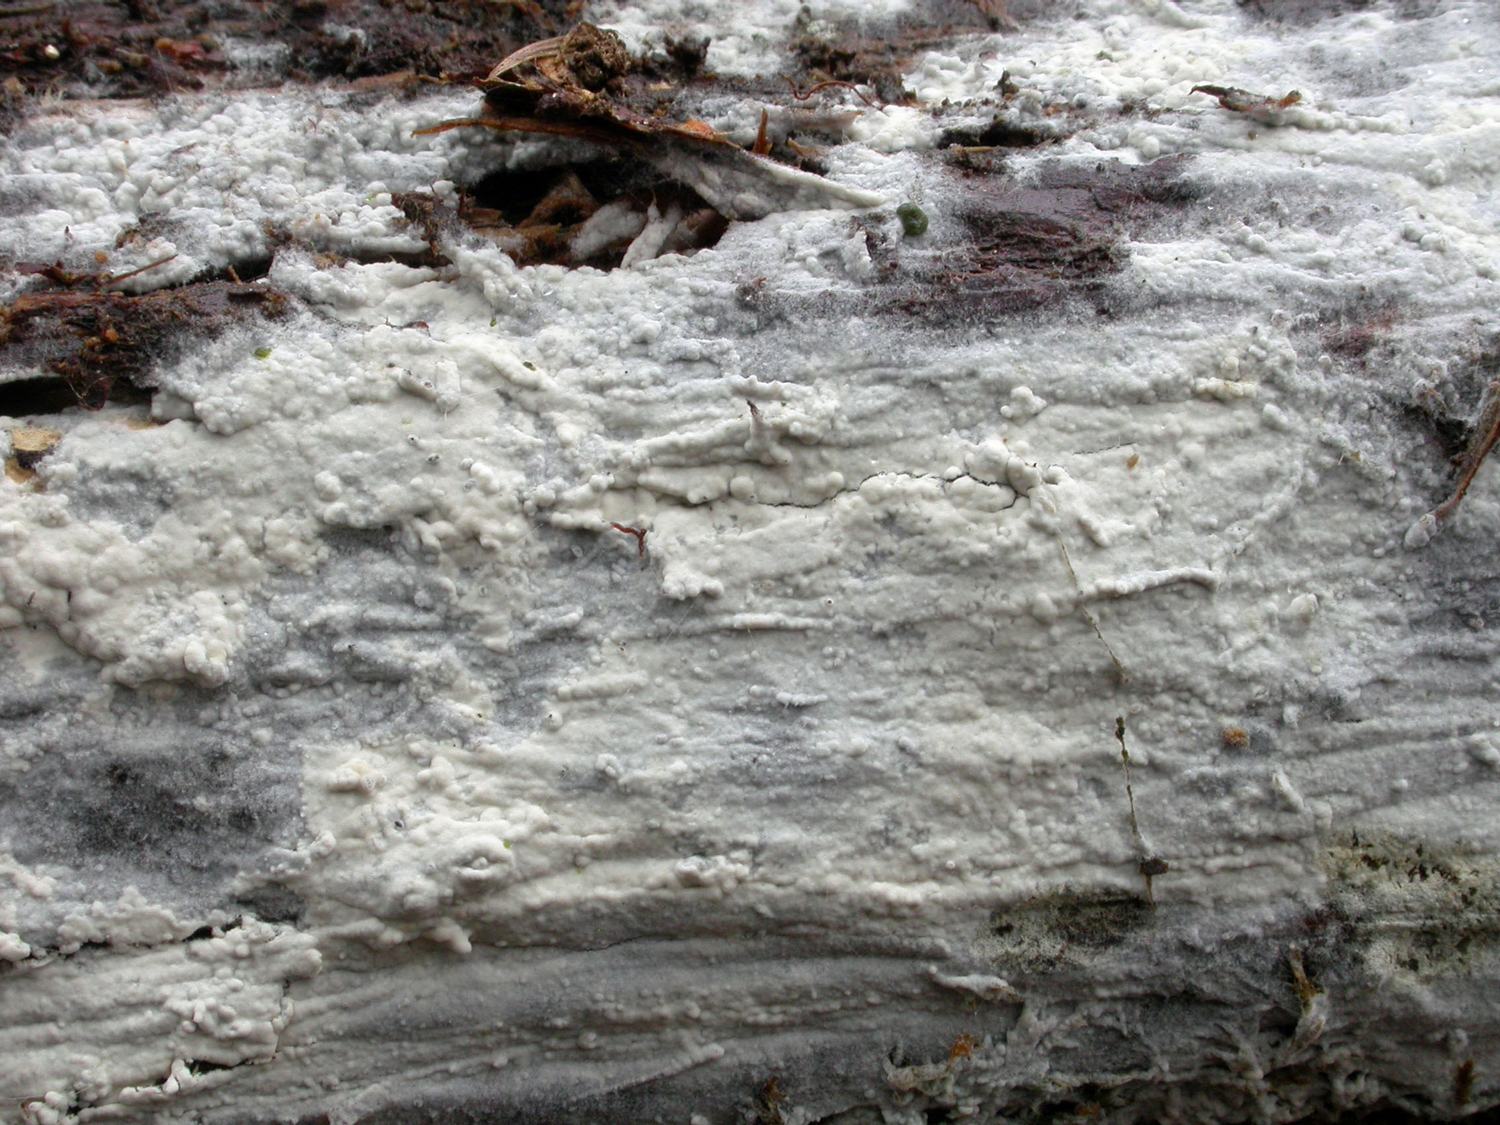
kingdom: Fungi
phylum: Basidiomycota
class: Agaricomycetes
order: Cantharellales
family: Botryobasidiaceae
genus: Botryobasidium
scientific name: Botryobasidium subcoronatum
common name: almindelig spindhinde
